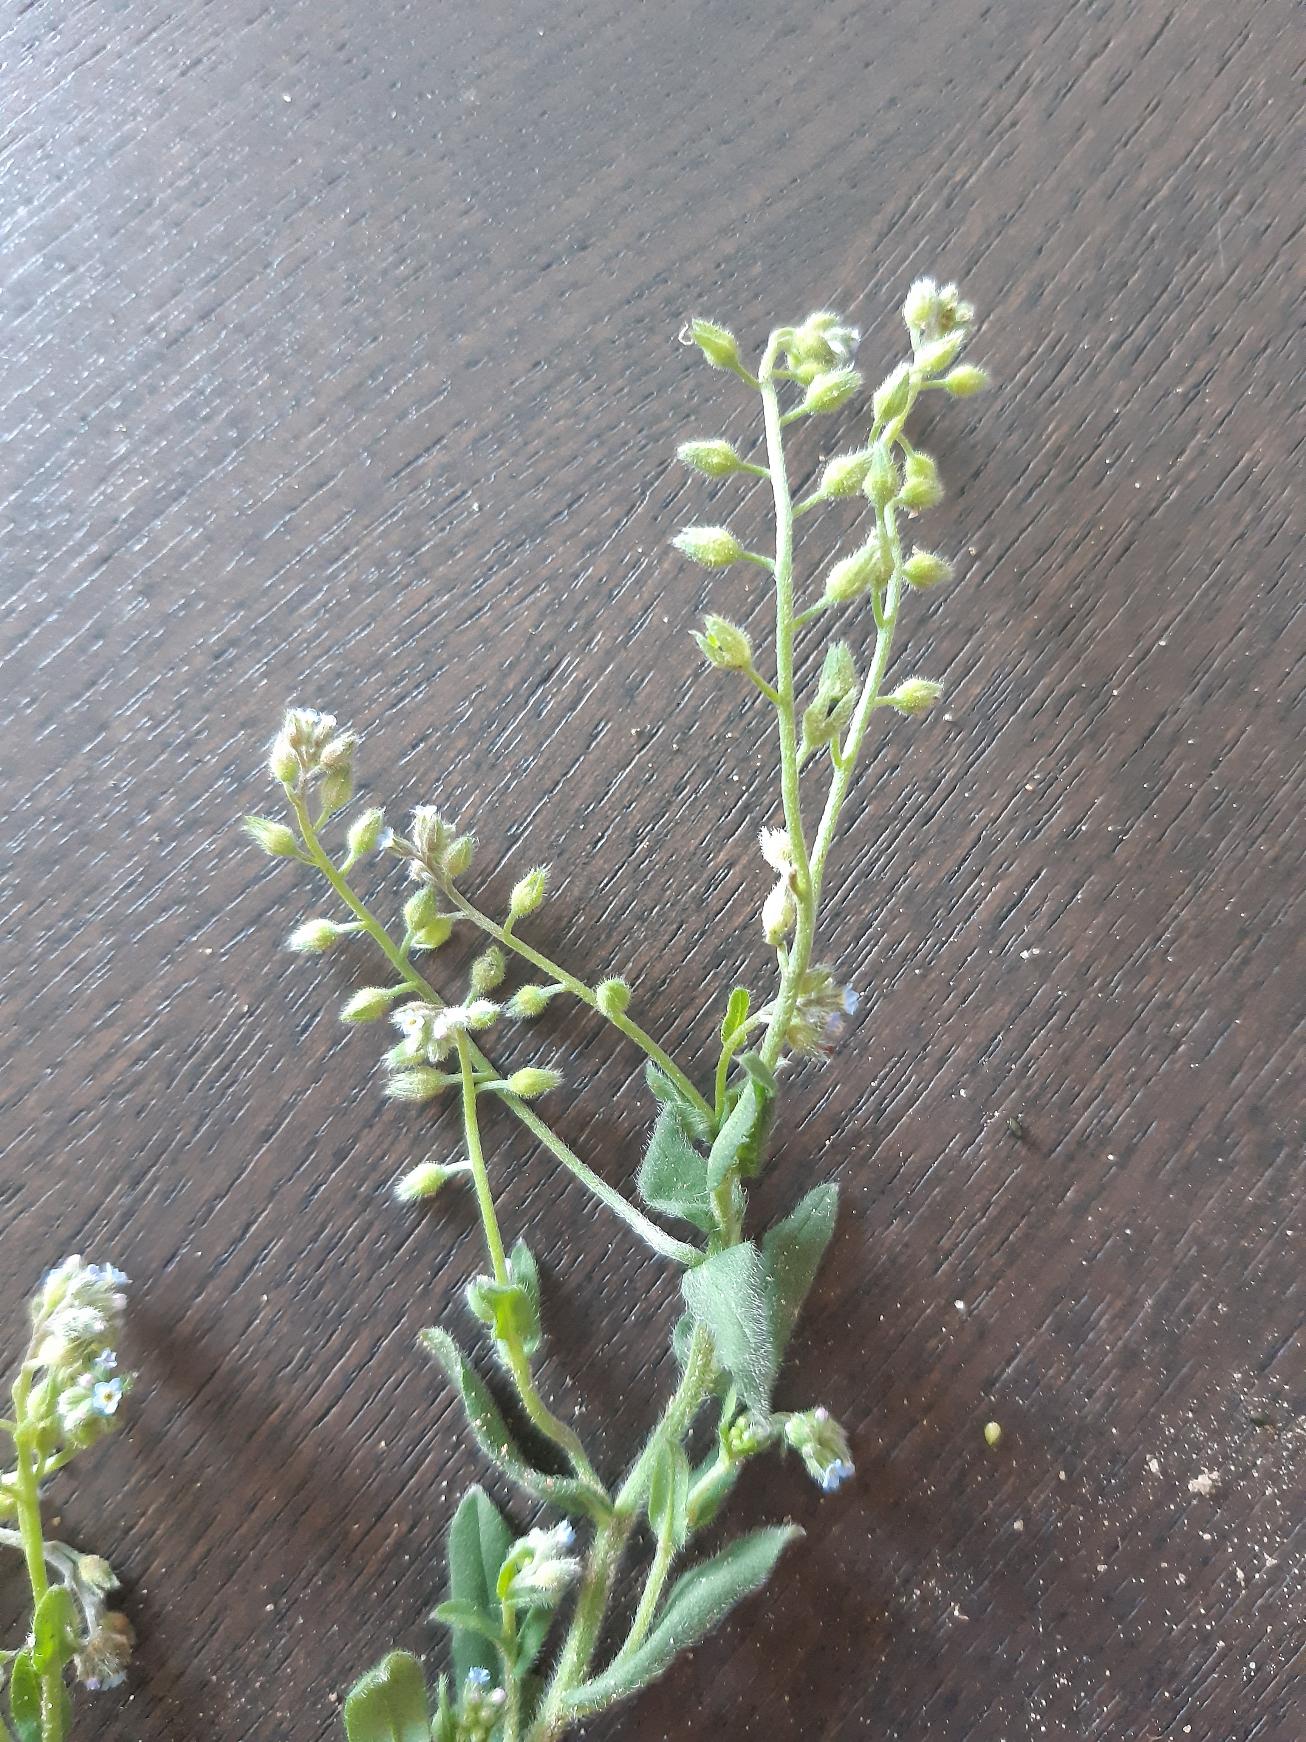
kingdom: Plantae
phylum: Tracheophyta
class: Magnoliopsida
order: Boraginales
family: Boraginaceae
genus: Myosotis
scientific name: Myosotis arvensis
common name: Mark-forglemmigej
